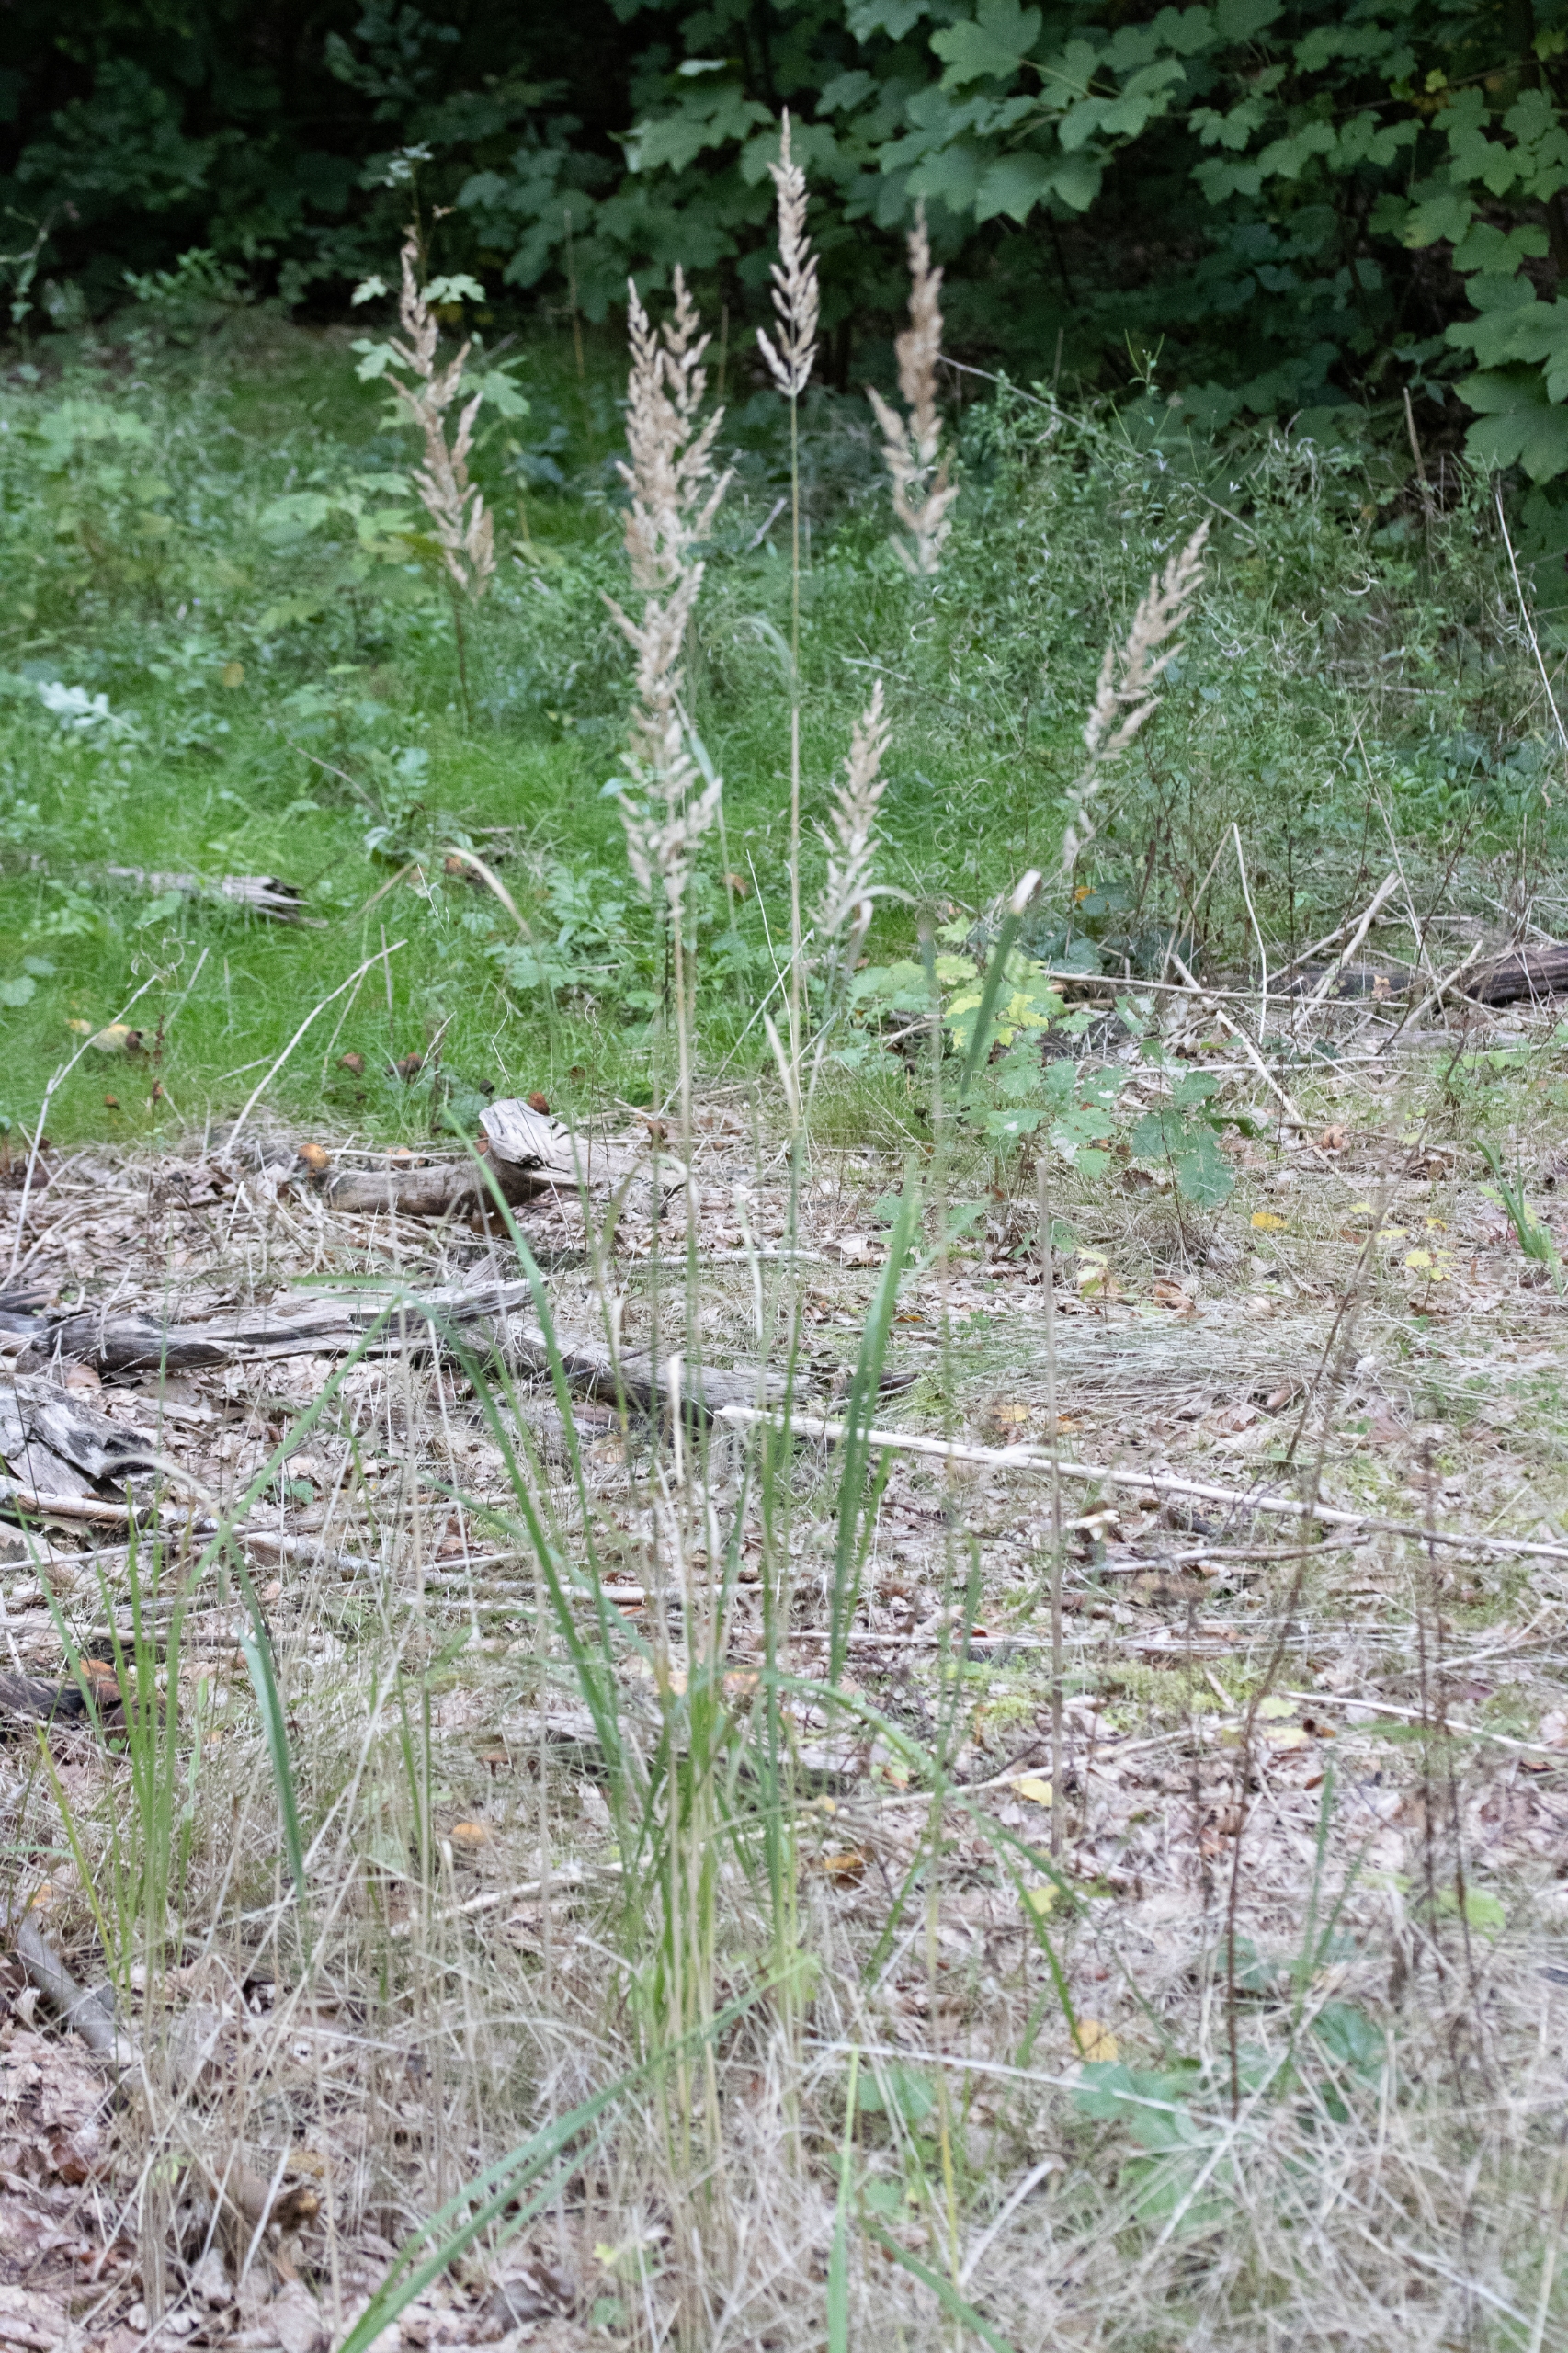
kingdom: Plantae
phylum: Tracheophyta
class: Liliopsida
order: Poales
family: Poaceae
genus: Calamagrostis
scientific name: Calamagrostis epigejos
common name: Bjerg-rørhvene
